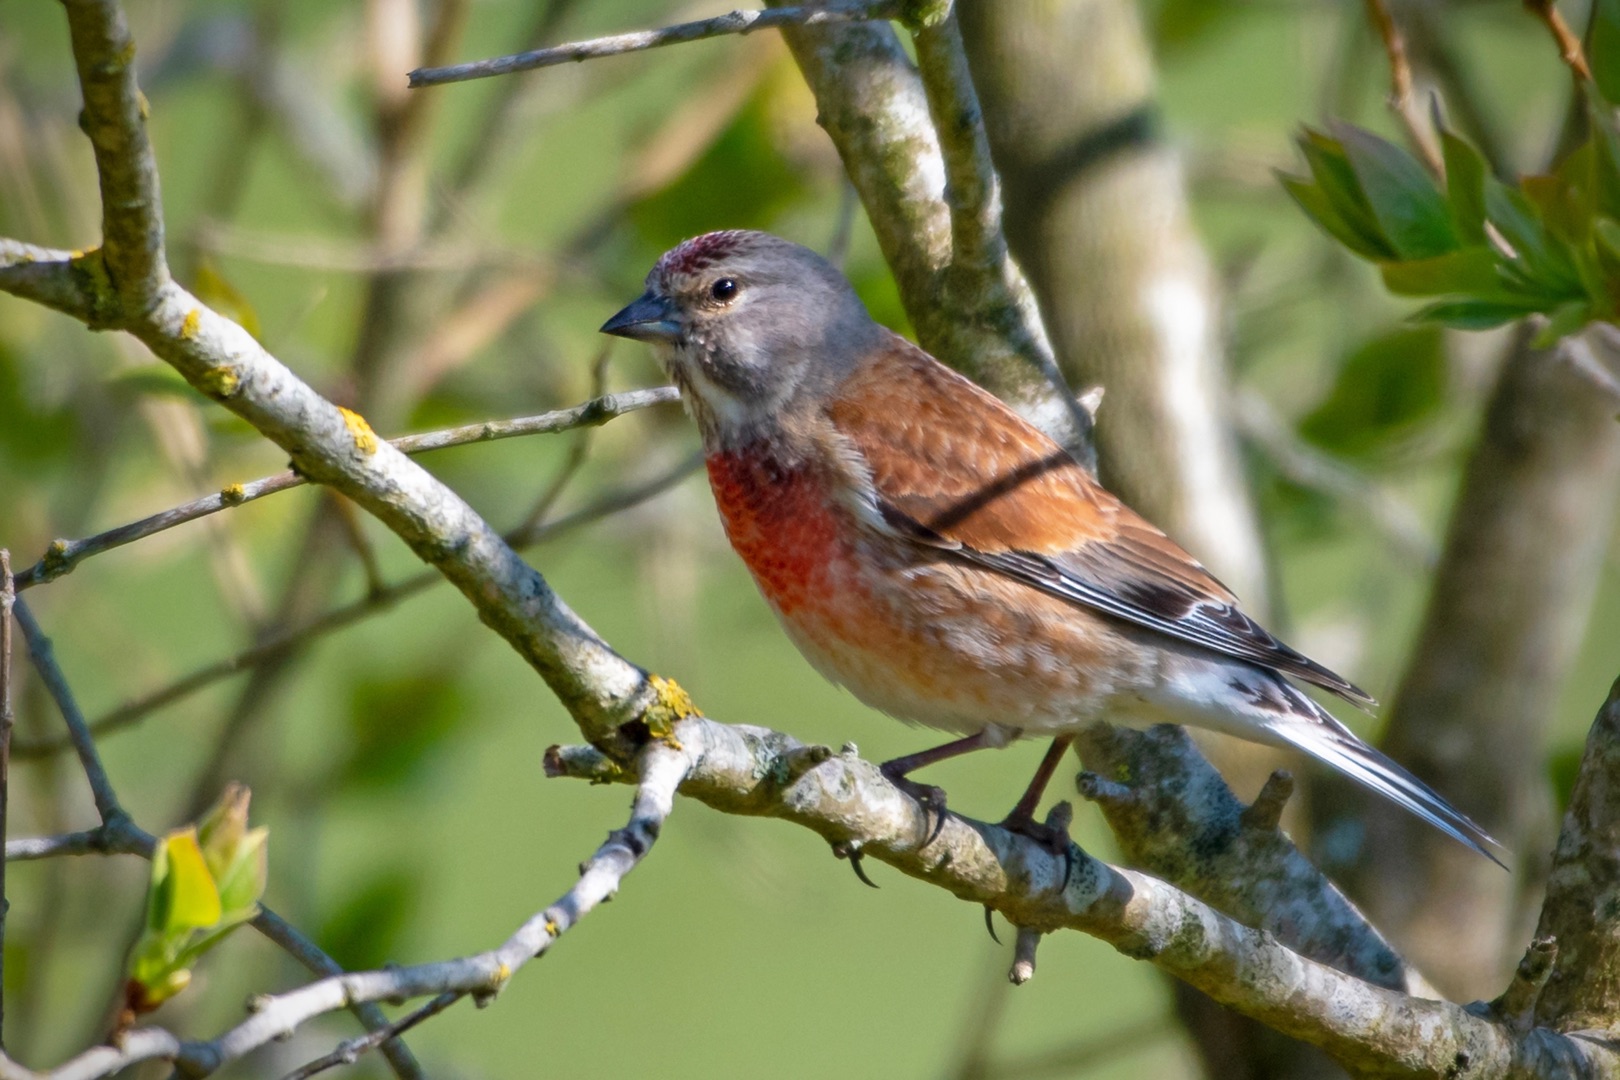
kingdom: Animalia
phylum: Chordata
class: Aves
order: Passeriformes
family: Fringillidae
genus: Linaria
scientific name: Linaria cannabina
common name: Tornirisk
